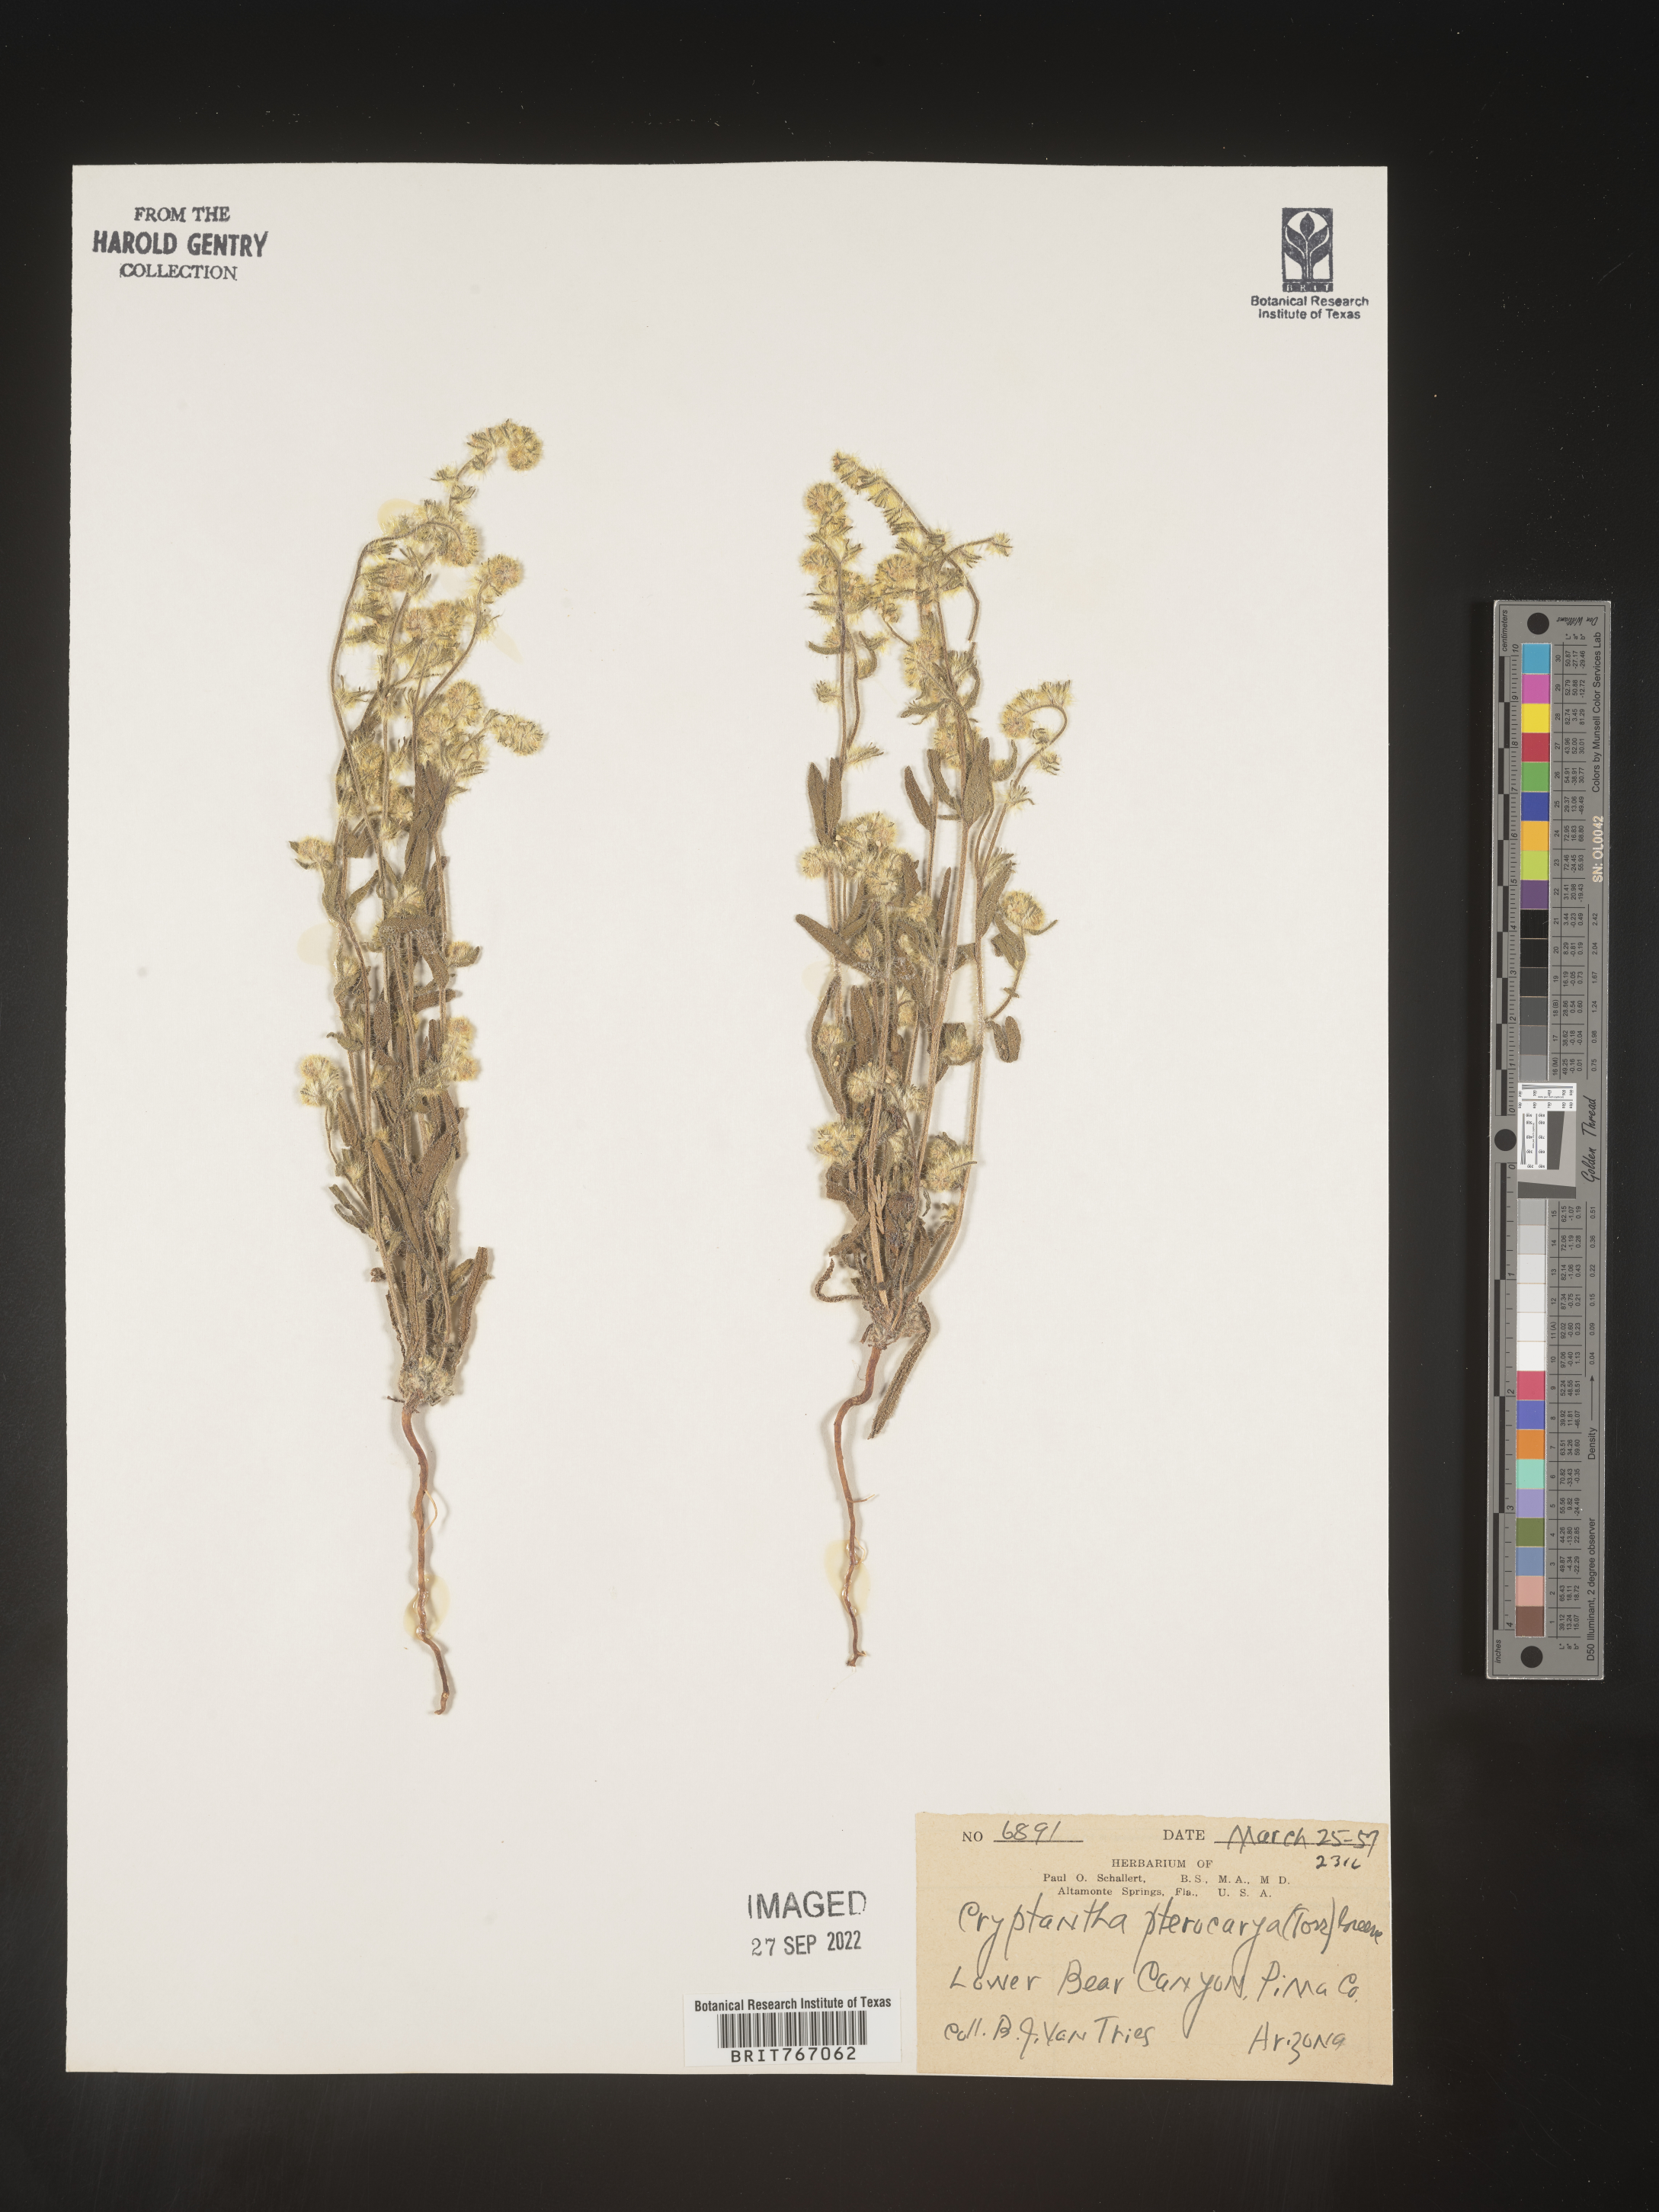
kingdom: Plantae
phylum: Tracheophyta
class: Magnoliopsida
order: Boraginales
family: Boraginaceae
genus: Cryptantha
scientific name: Cryptantha pterocarya
